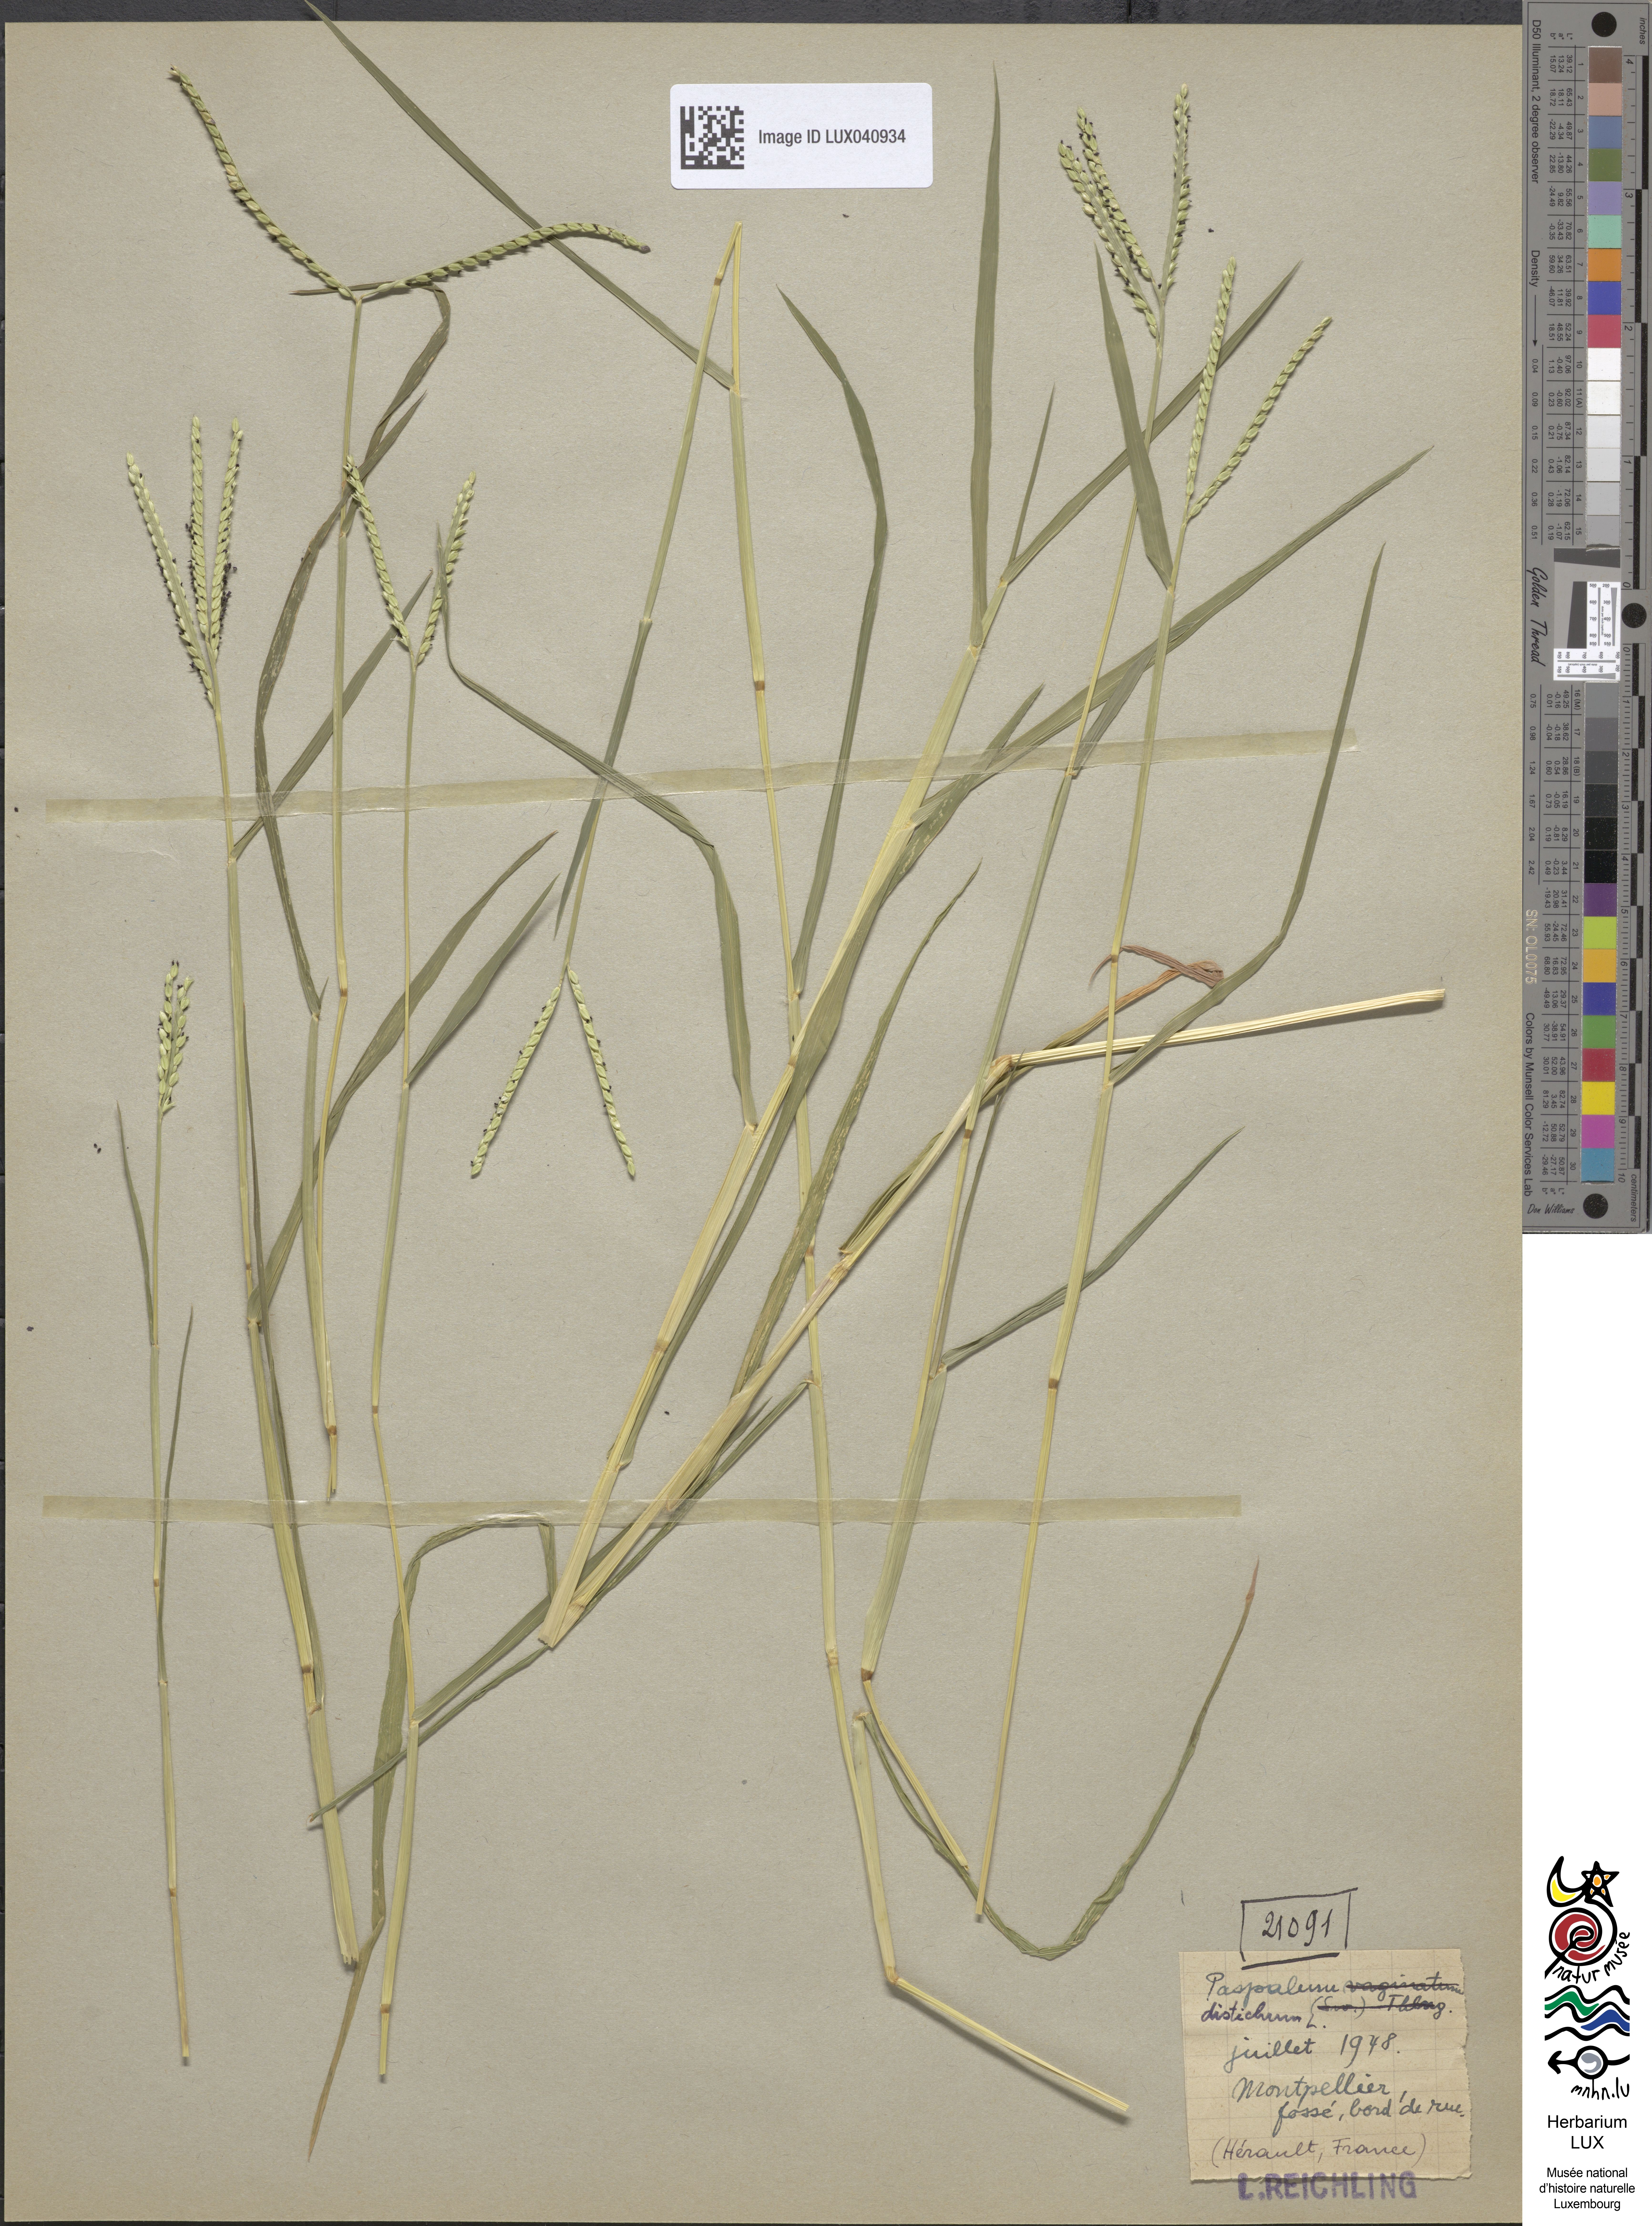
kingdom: Plantae
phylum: Tracheophyta
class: Liliopsida
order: Poales
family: Poaceae
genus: Paspalum
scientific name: Paspalum vaginatum
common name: Seashore paspalum
